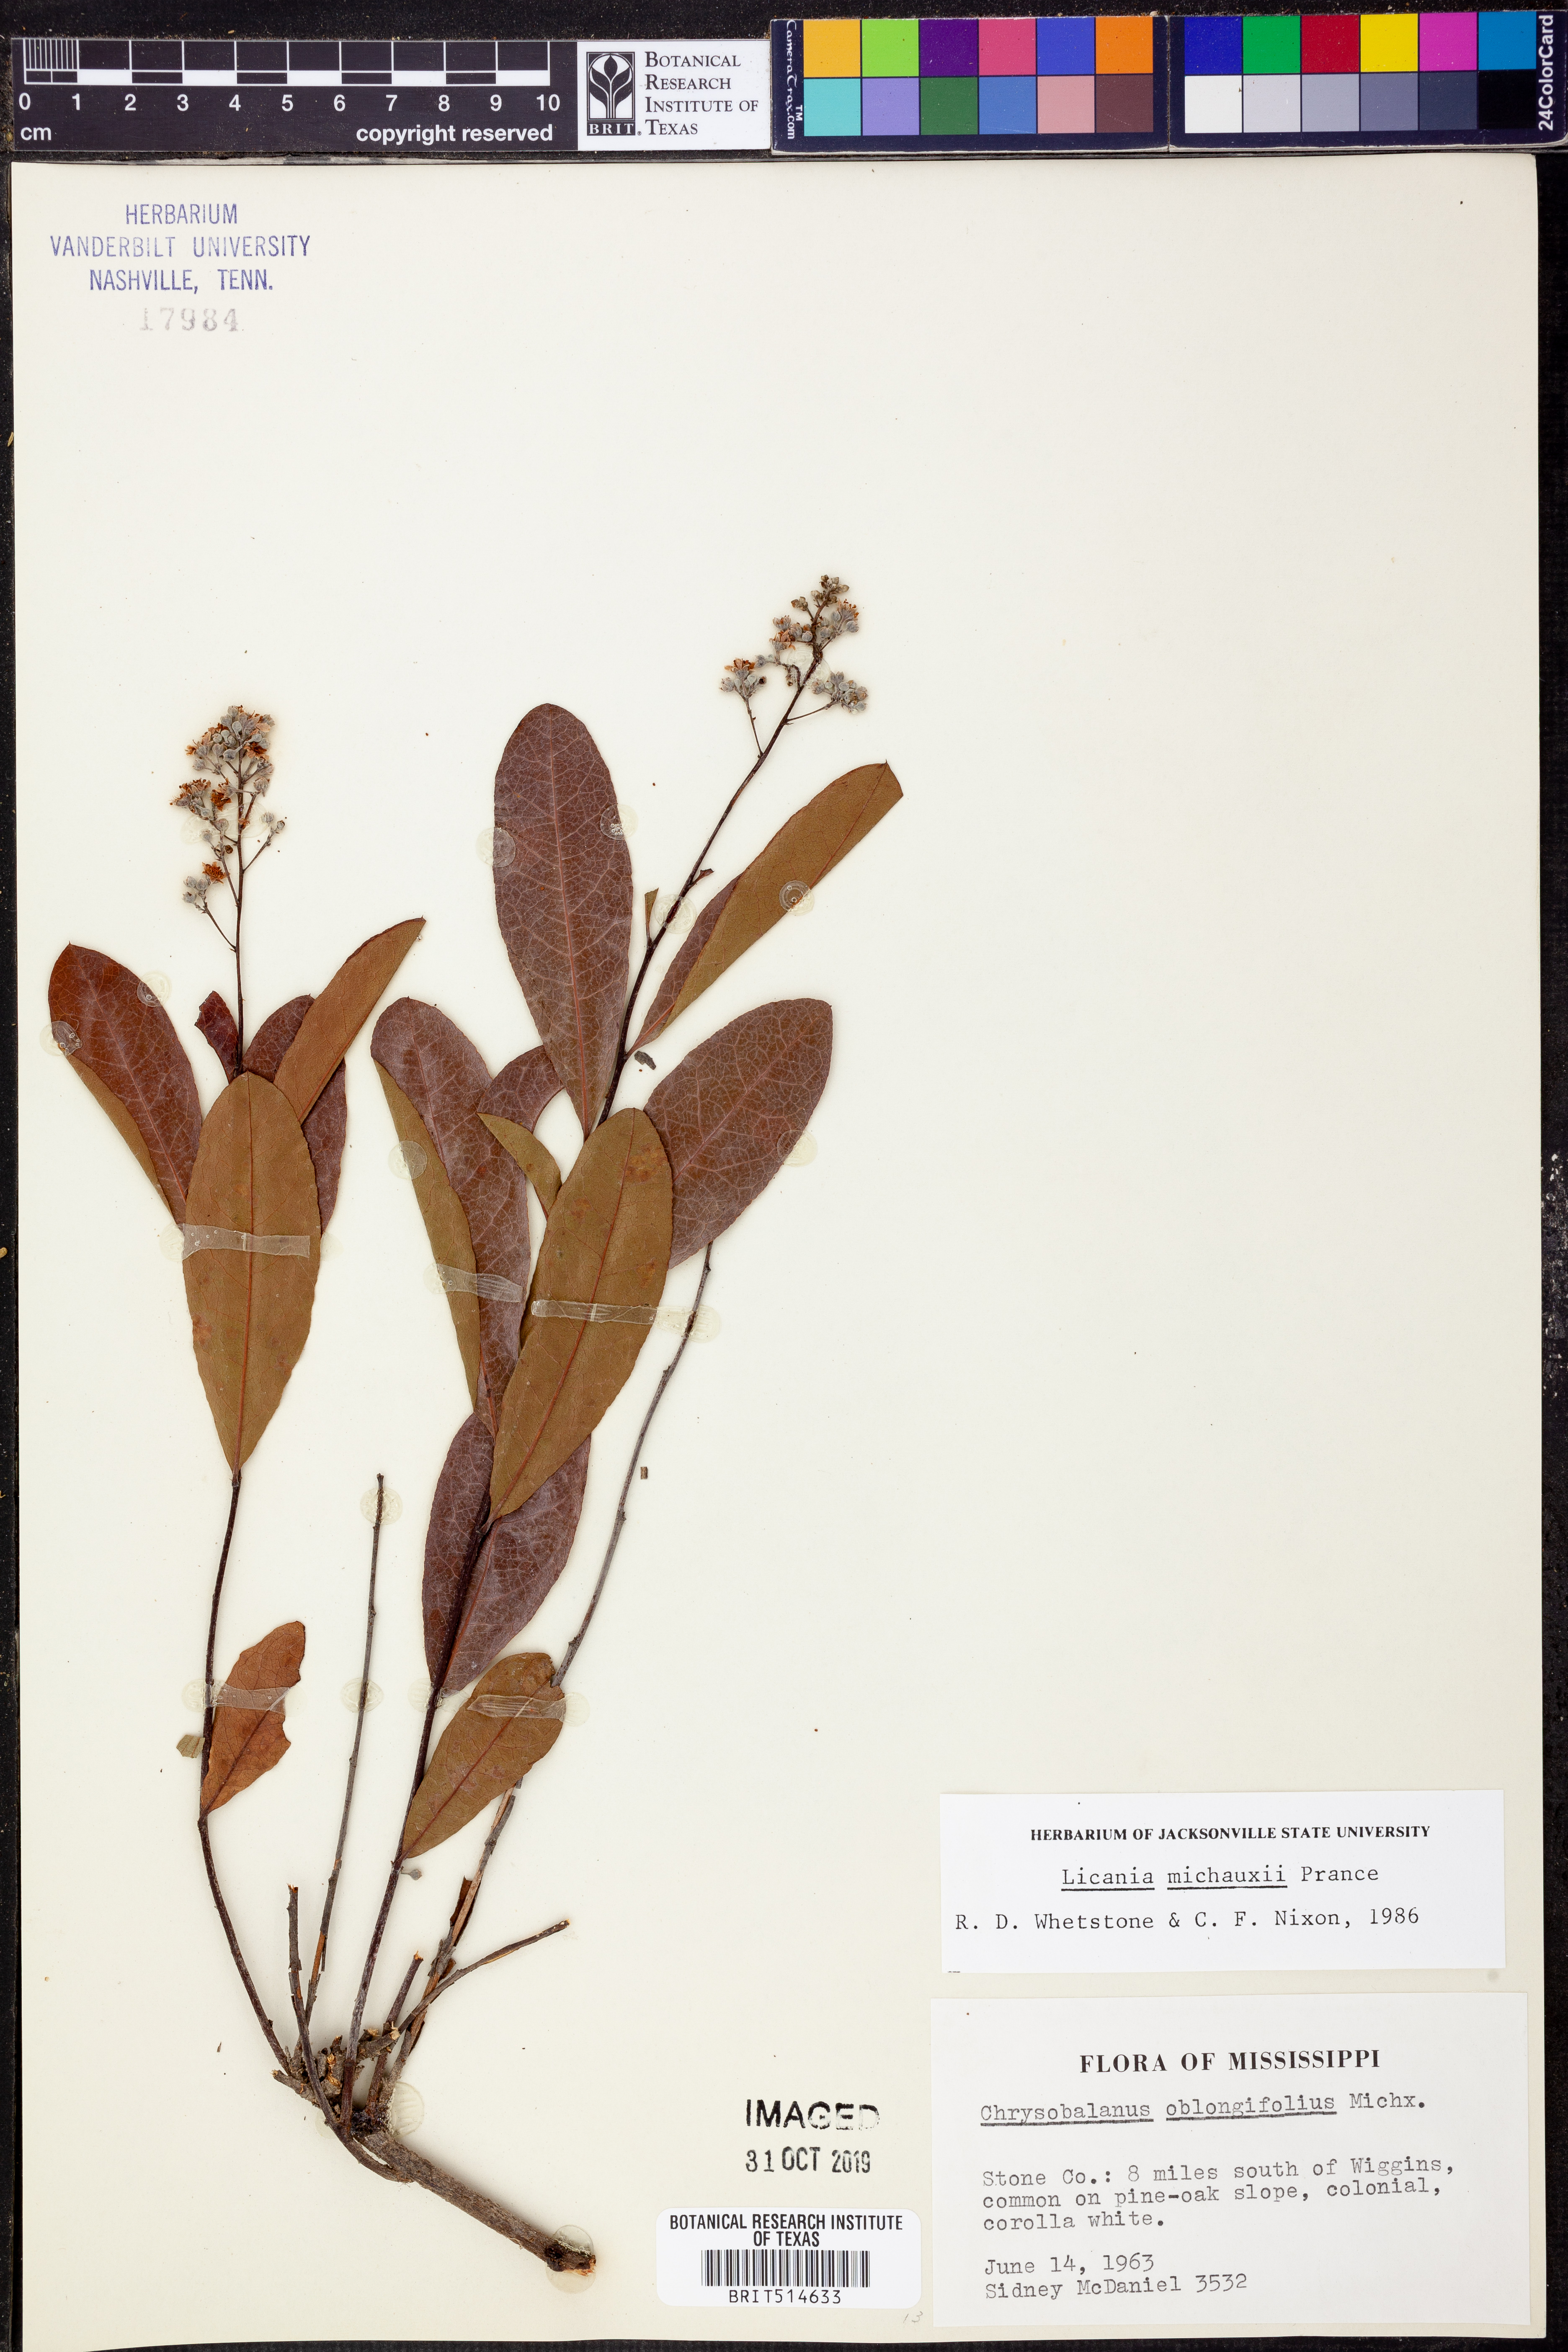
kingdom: Plantae
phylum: Tracheophyta
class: Magnoliopsida
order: Malpighiales
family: Chrysobalanaceae
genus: Geobalanus
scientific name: Geobalanus oblongifolius
